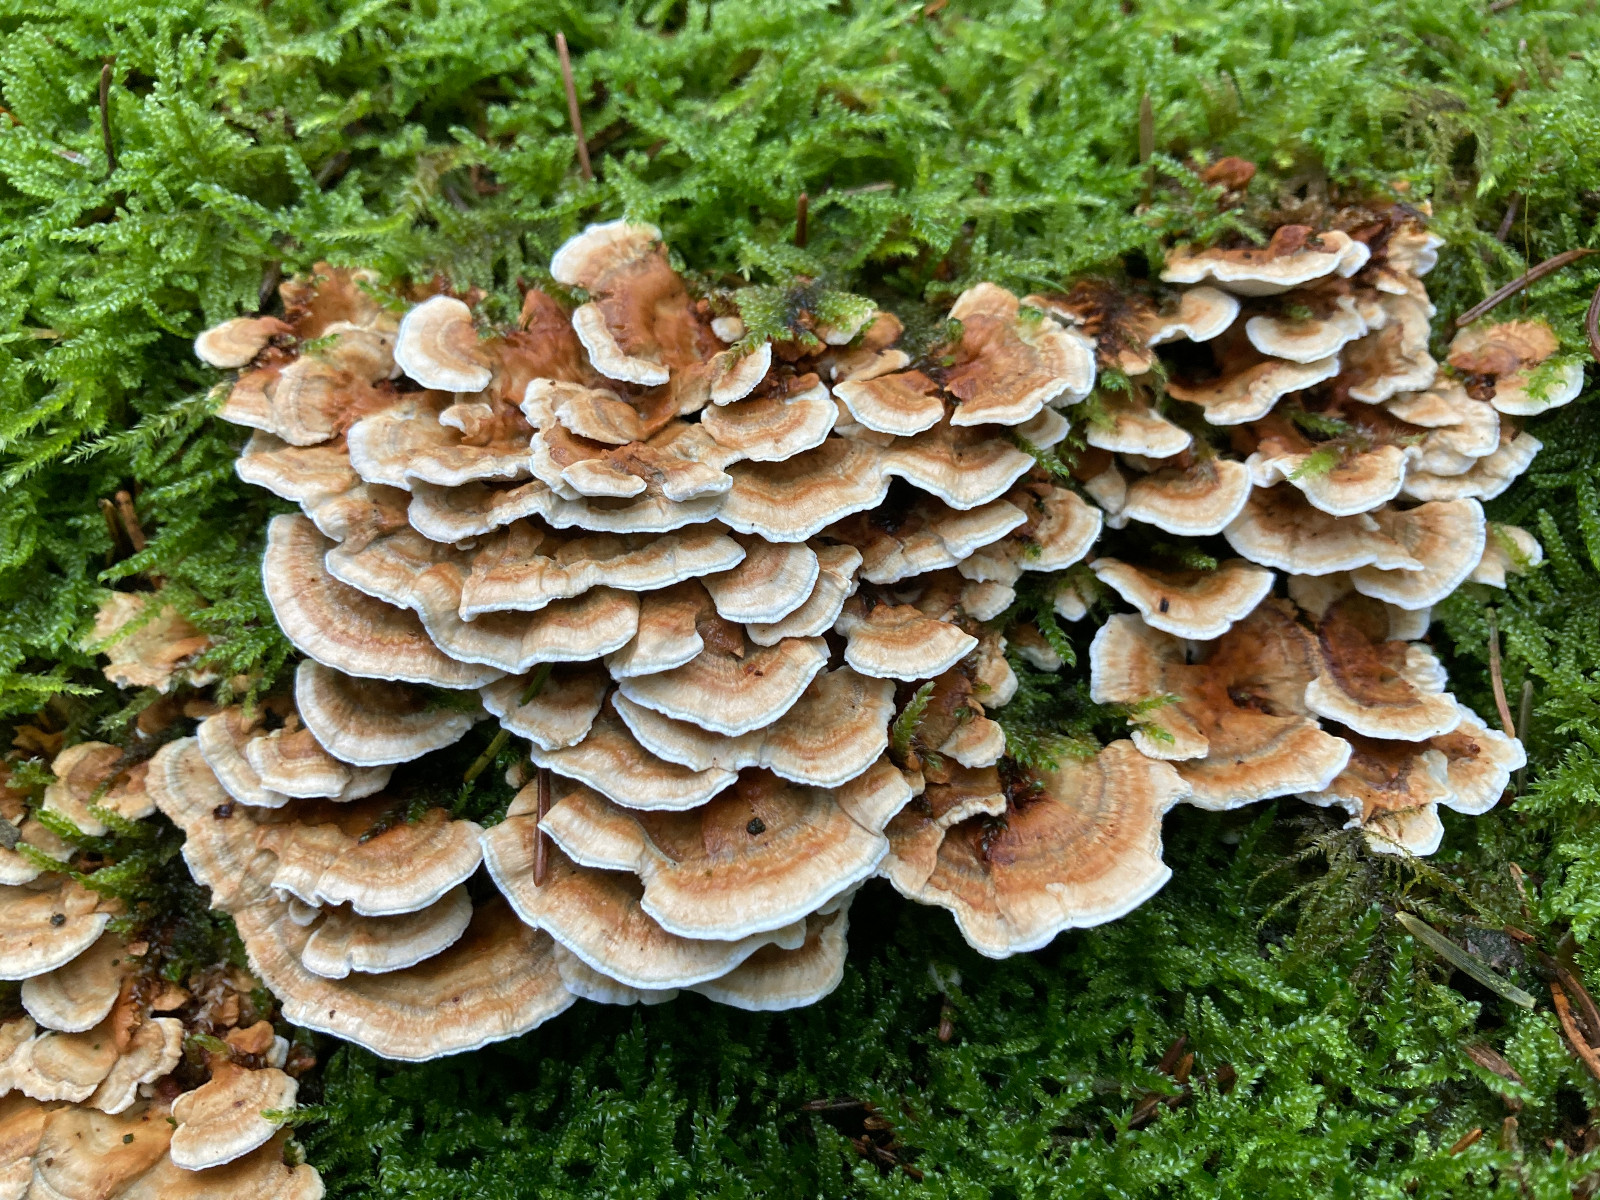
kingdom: Fungi
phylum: Basidiomycota
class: Agaricomycetes
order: Polyporales
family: Dacryobolaceae
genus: Oligoporus
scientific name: Oligoporus wakefieldiae
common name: række-kødporesvamp
